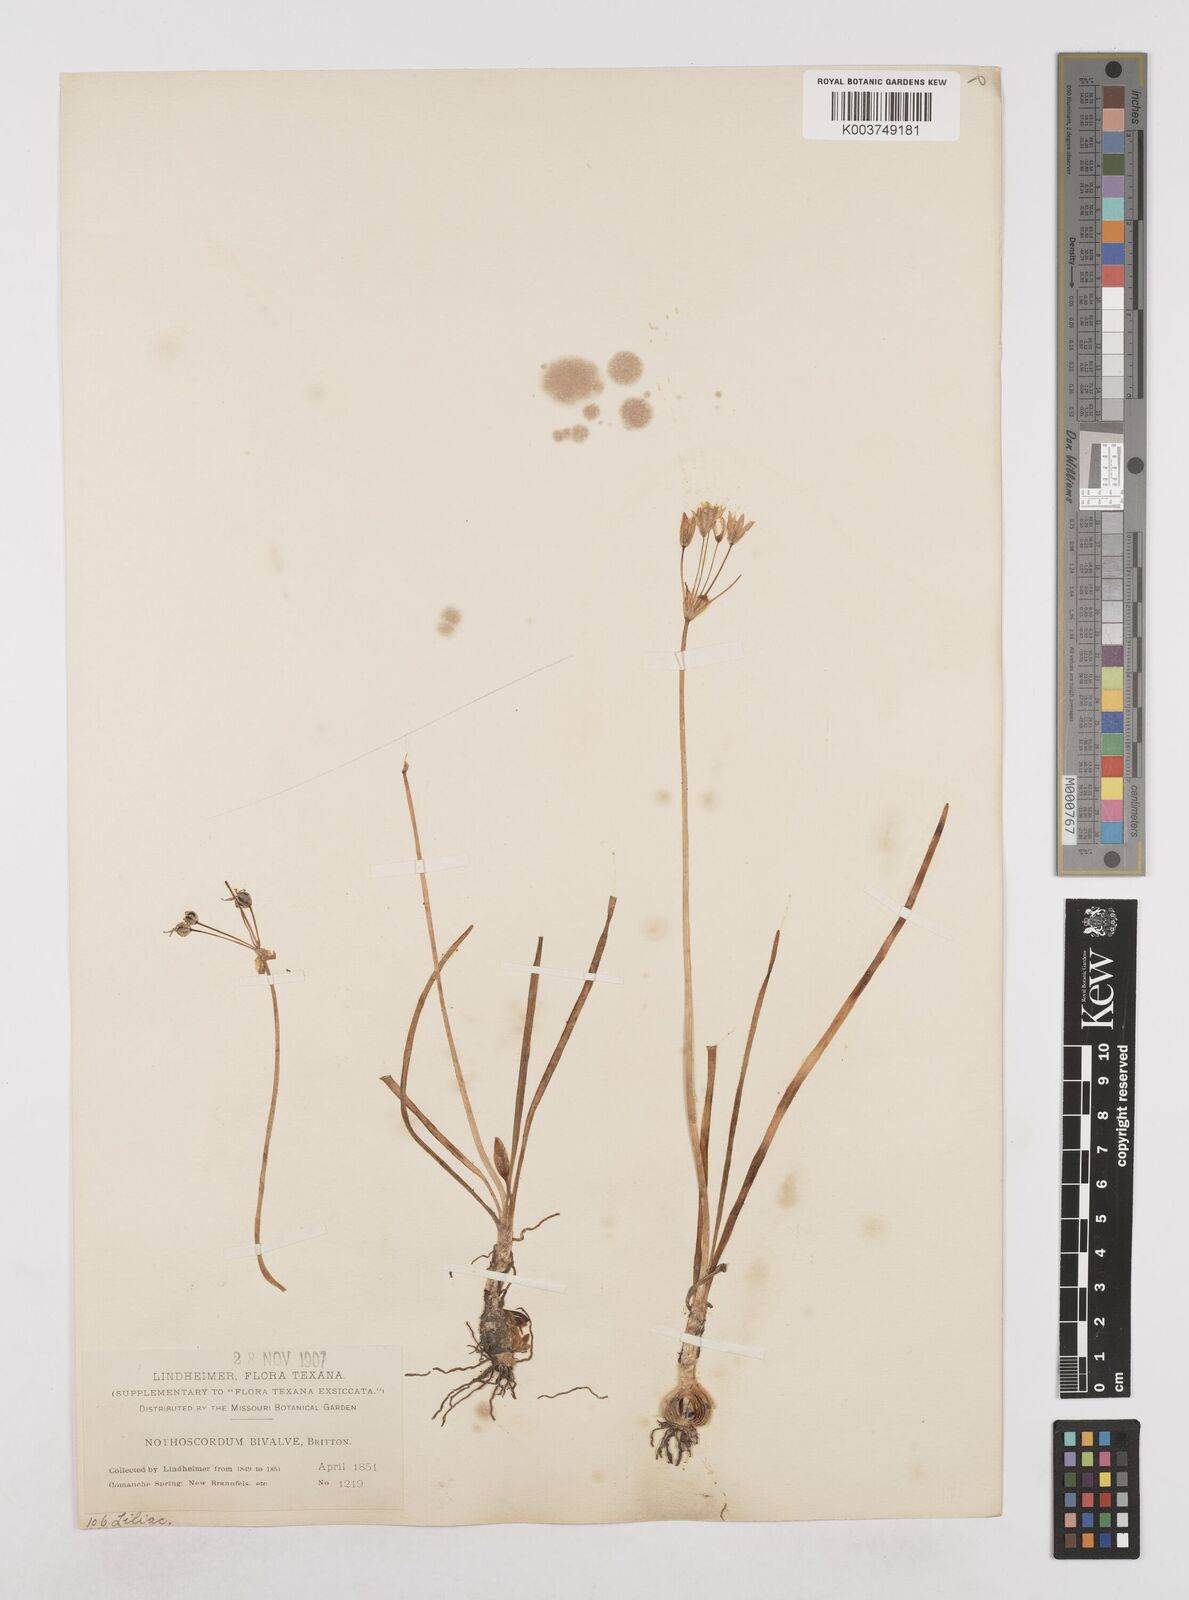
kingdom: Plantae
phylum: Tracheophyta
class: Liliopsida
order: Asparagales
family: Amaryllidaceae
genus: Nothoscordum
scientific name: Nothoscordum bivalve
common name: Crow-poison
